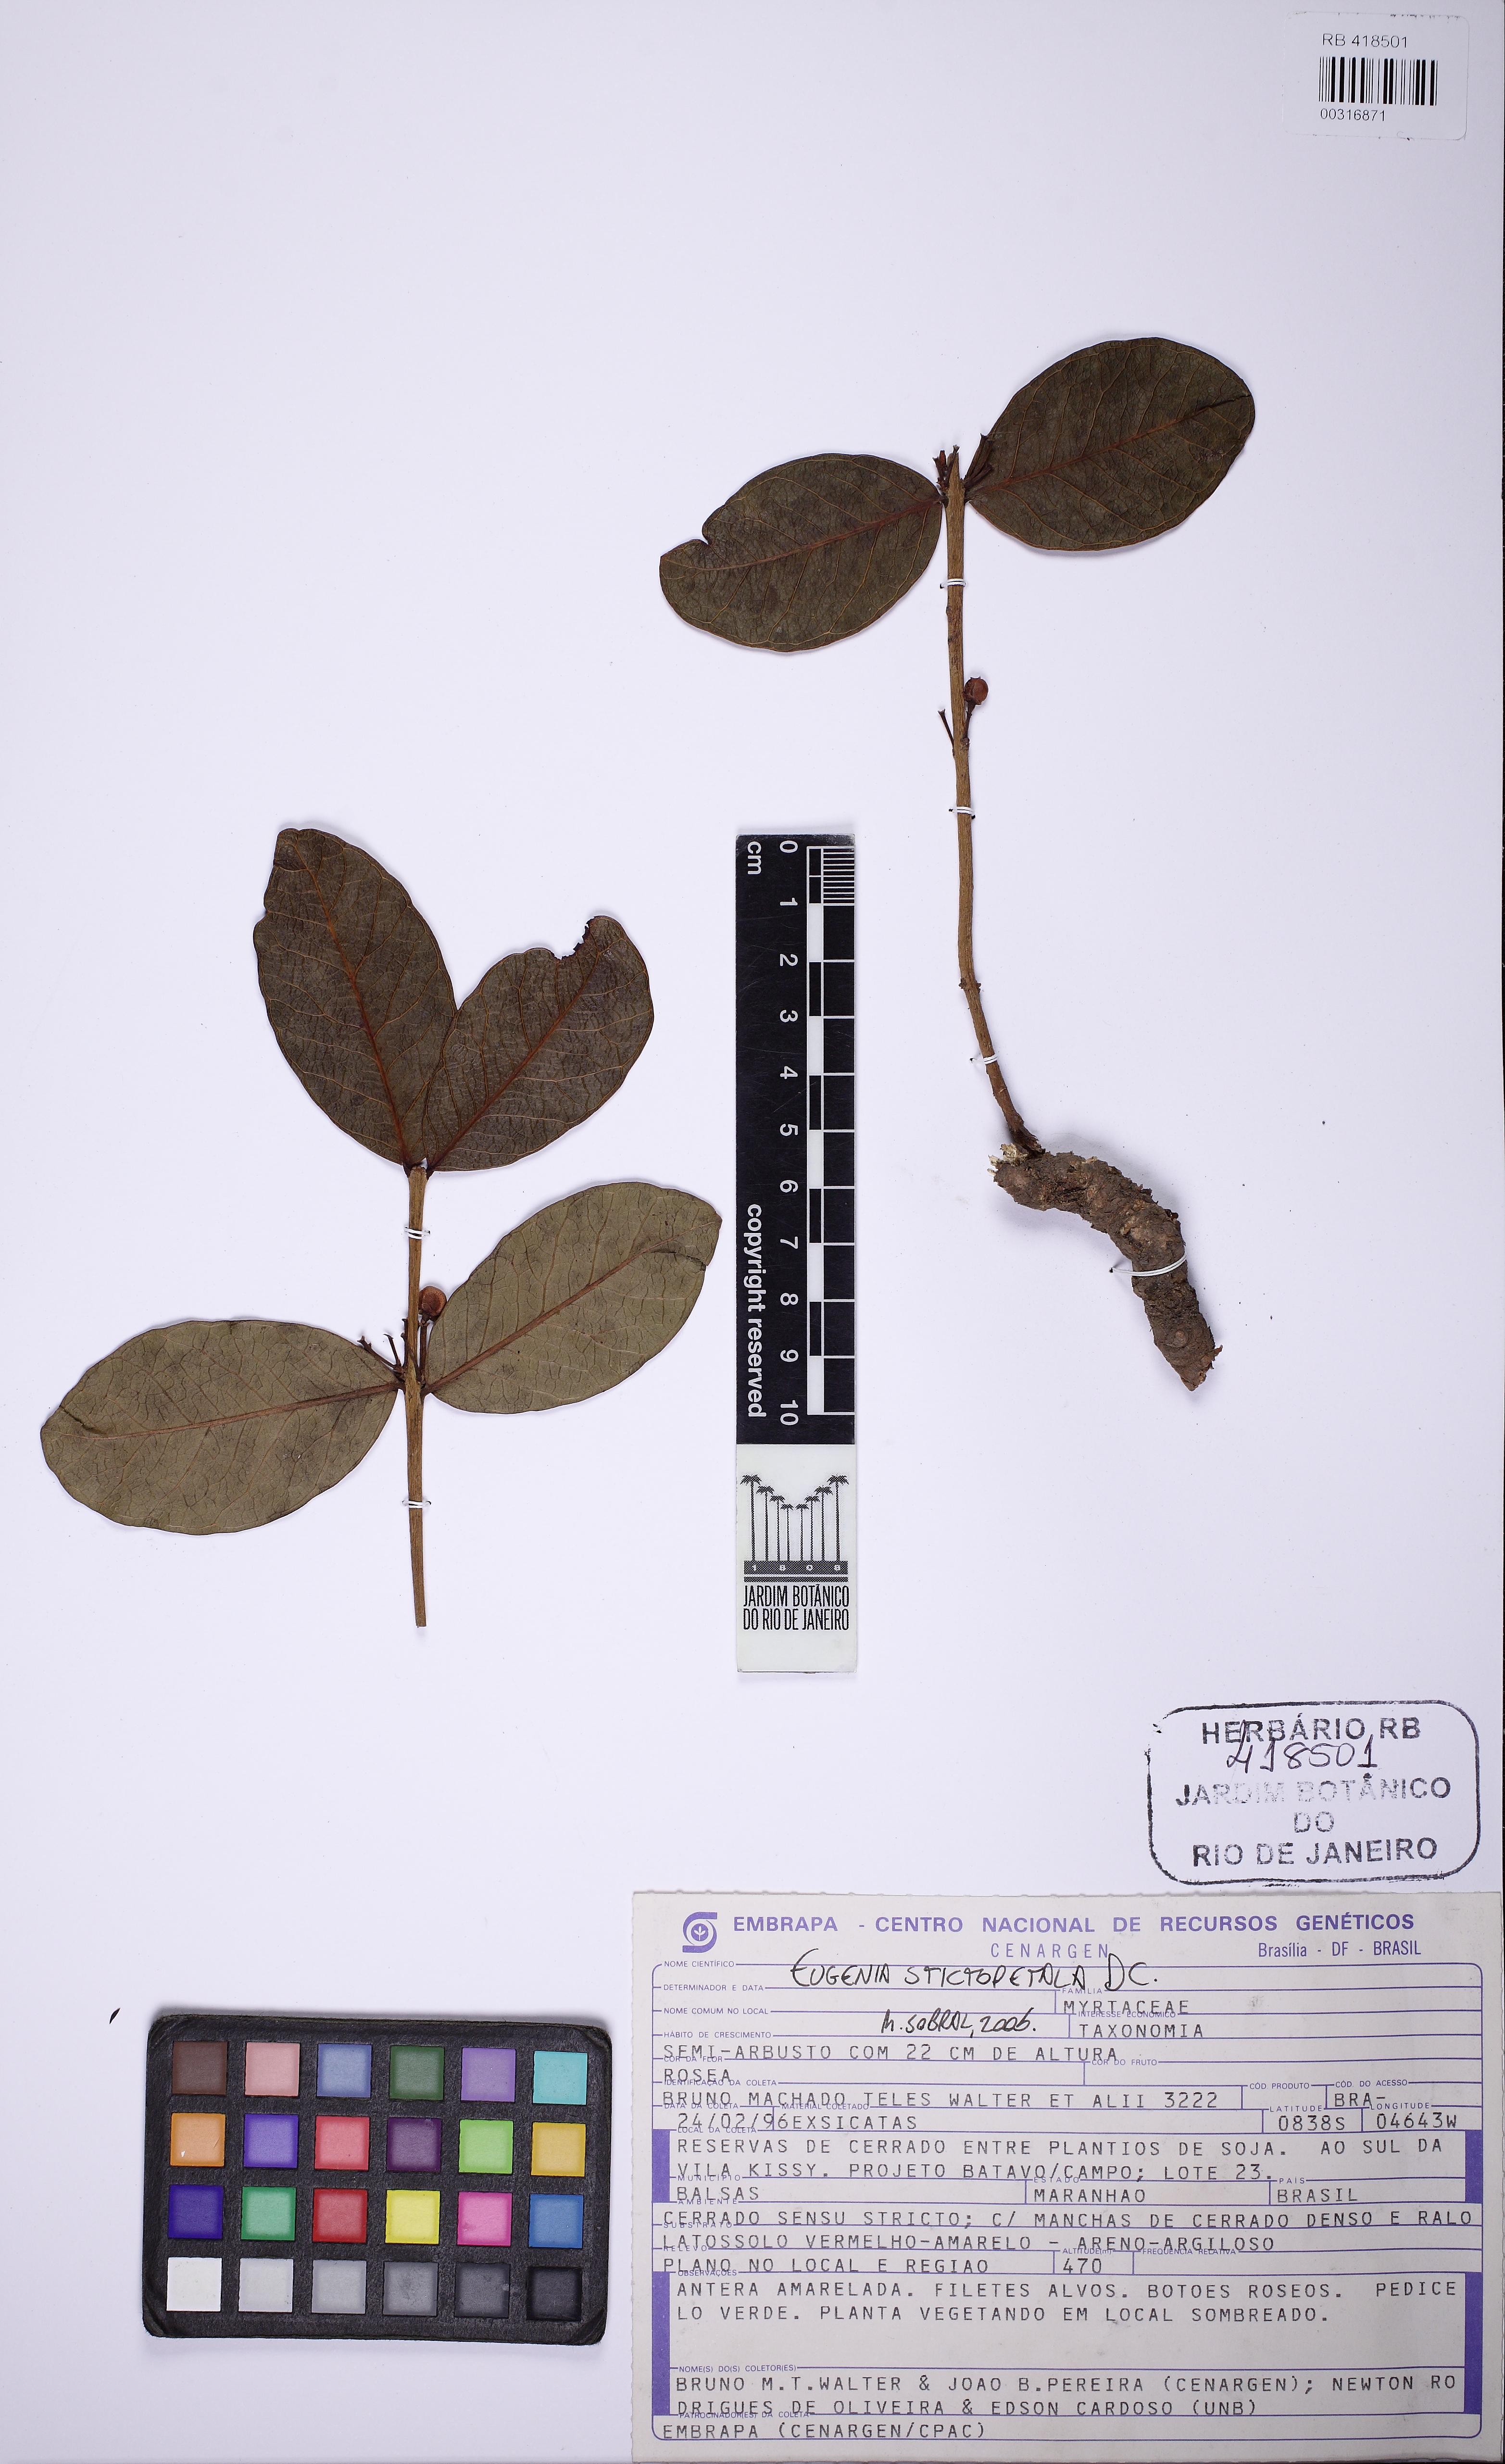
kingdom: Plantae
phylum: Tracheophyta
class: Magnoliopsida
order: Myrtales
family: Myrtaceae
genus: Eugenia
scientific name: Eugenia stictopetala
